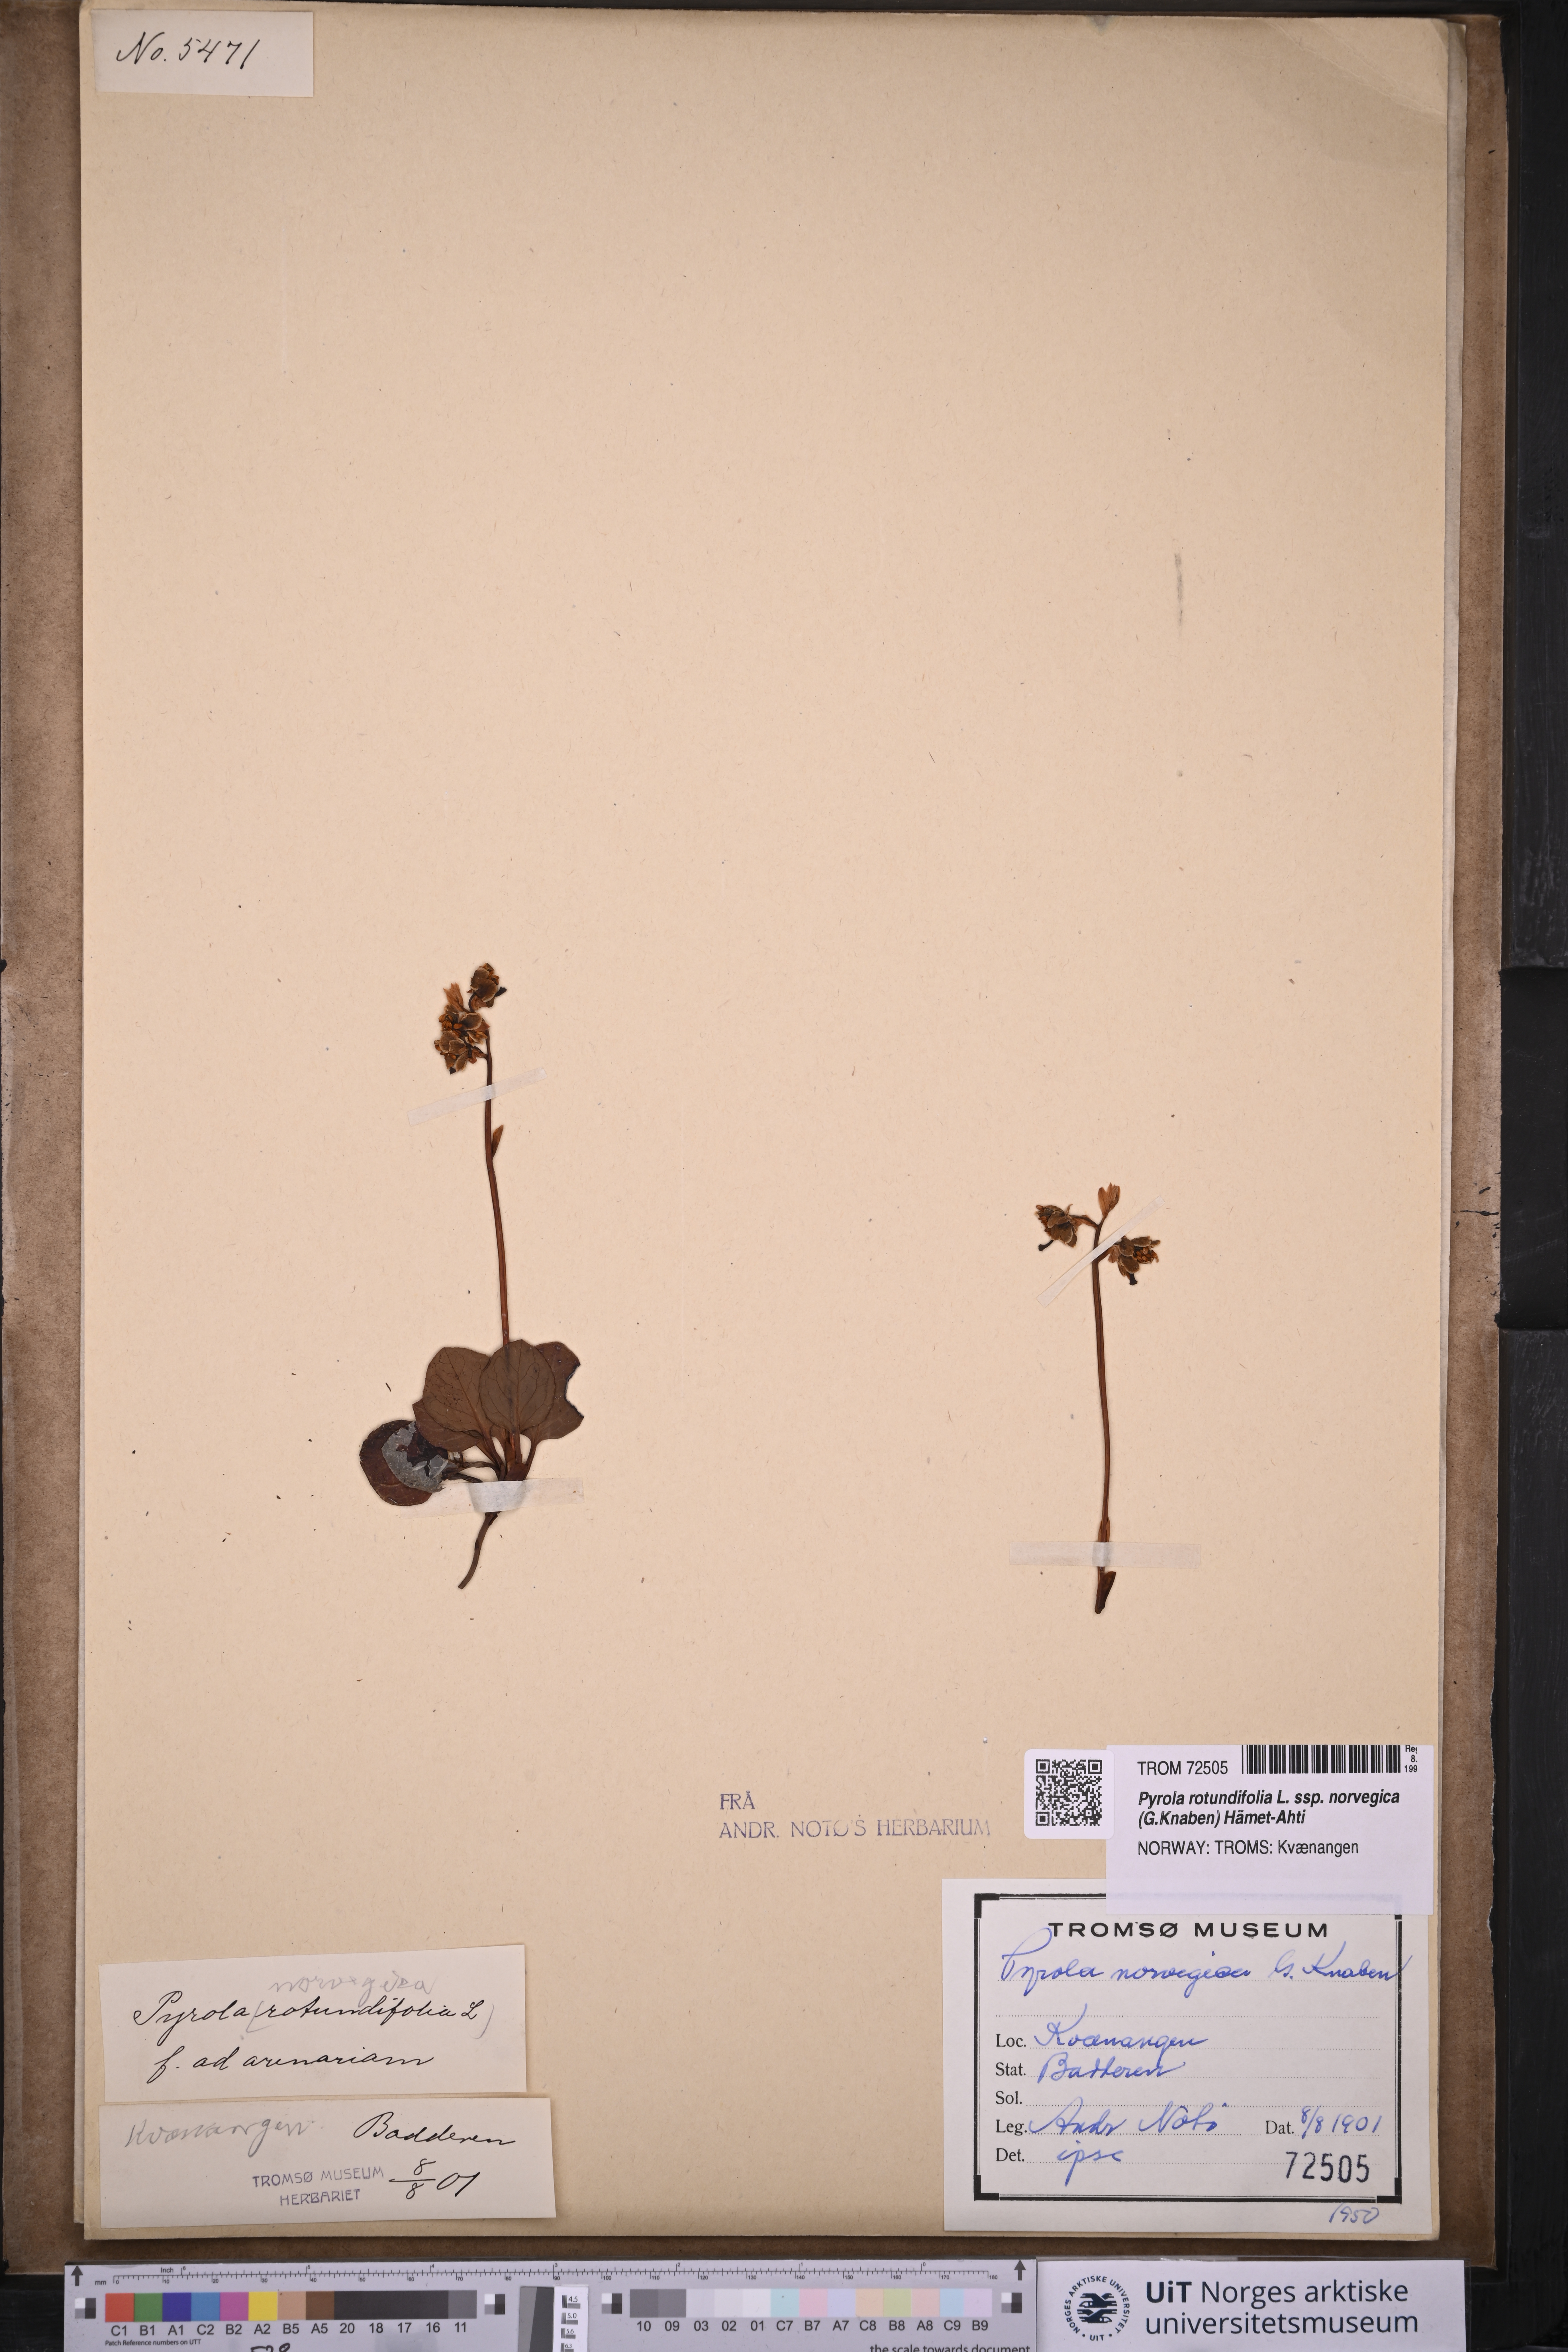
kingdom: Plantae
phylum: Tracheophyta
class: Magnoliopsida
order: Ericales
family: Ericaceae
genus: Pyrola
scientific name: Pyrola rotundifolia
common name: Round-leaved wintergreen
